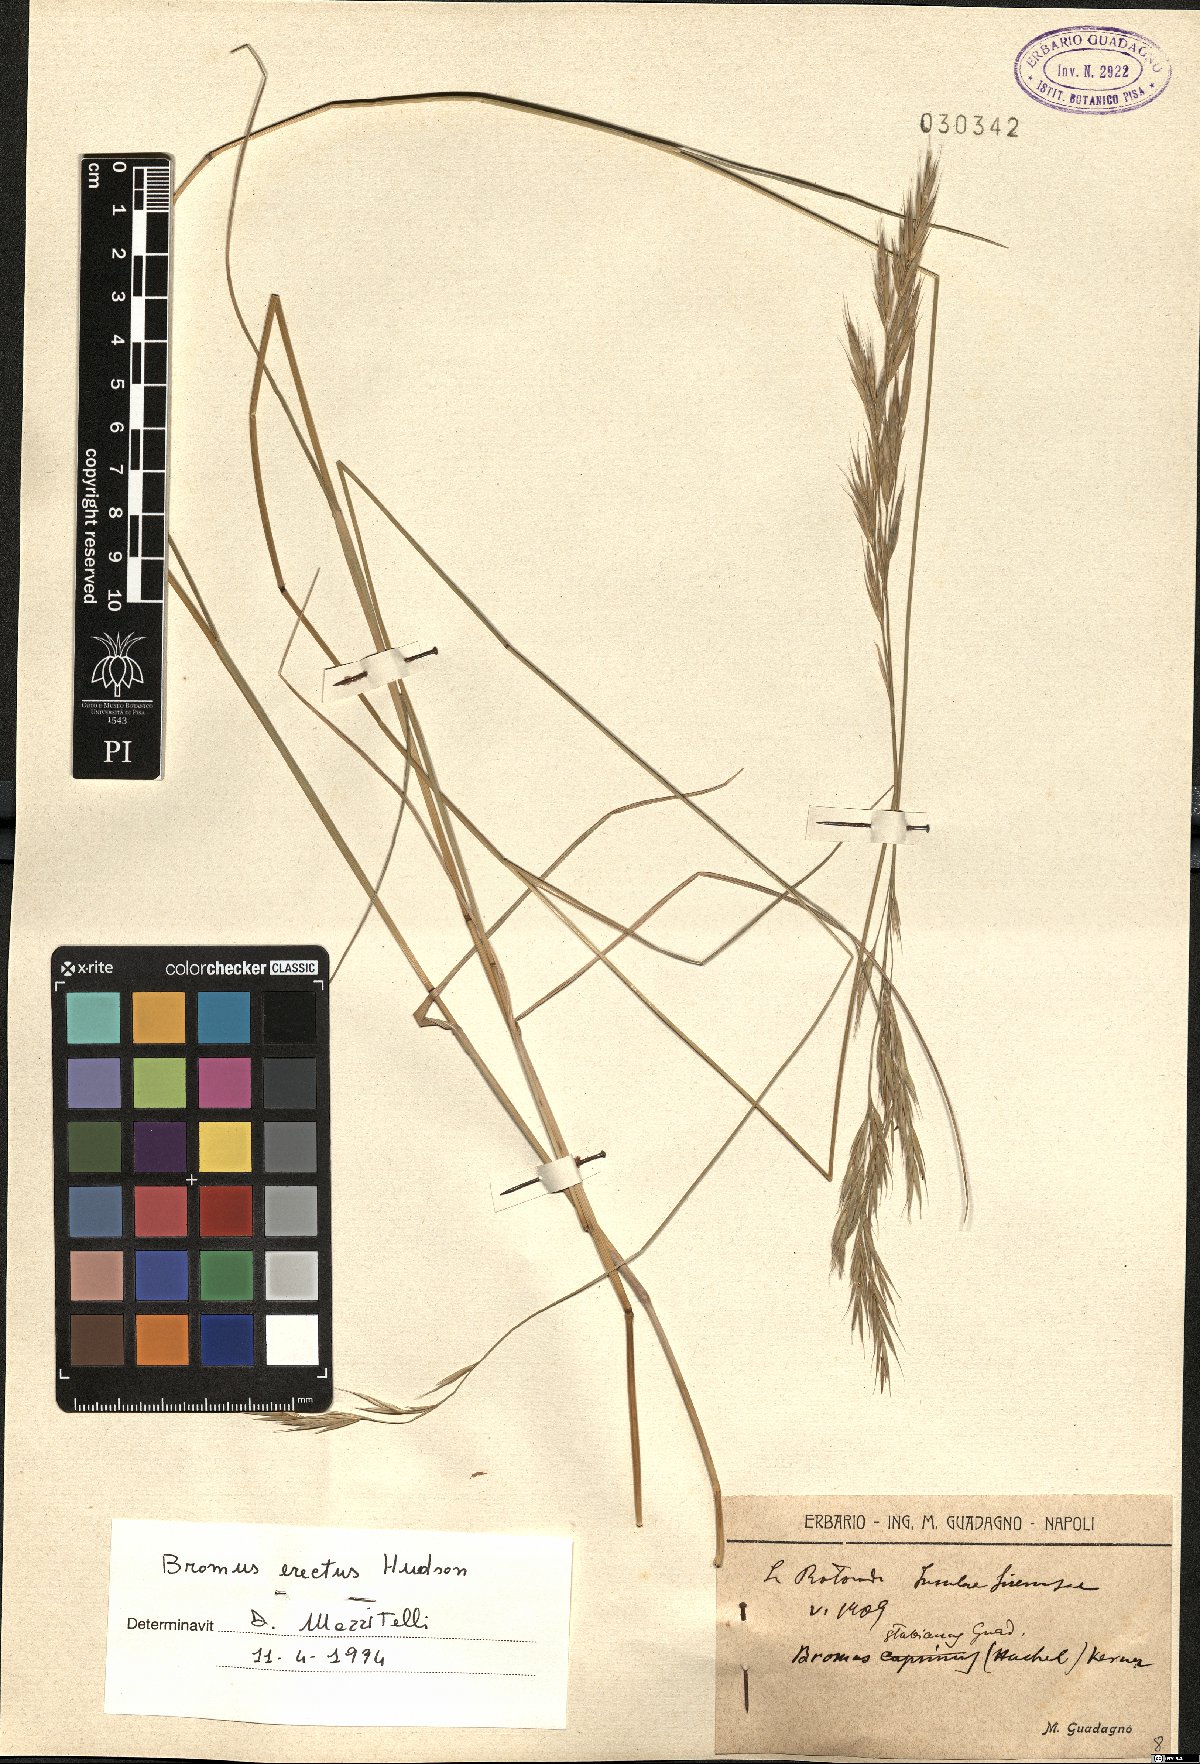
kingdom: Plantae
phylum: Tracheophyta
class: Liliopsida
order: Poales
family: Poaceae
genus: Bromus
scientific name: Bromus erectus
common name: Erect brome
